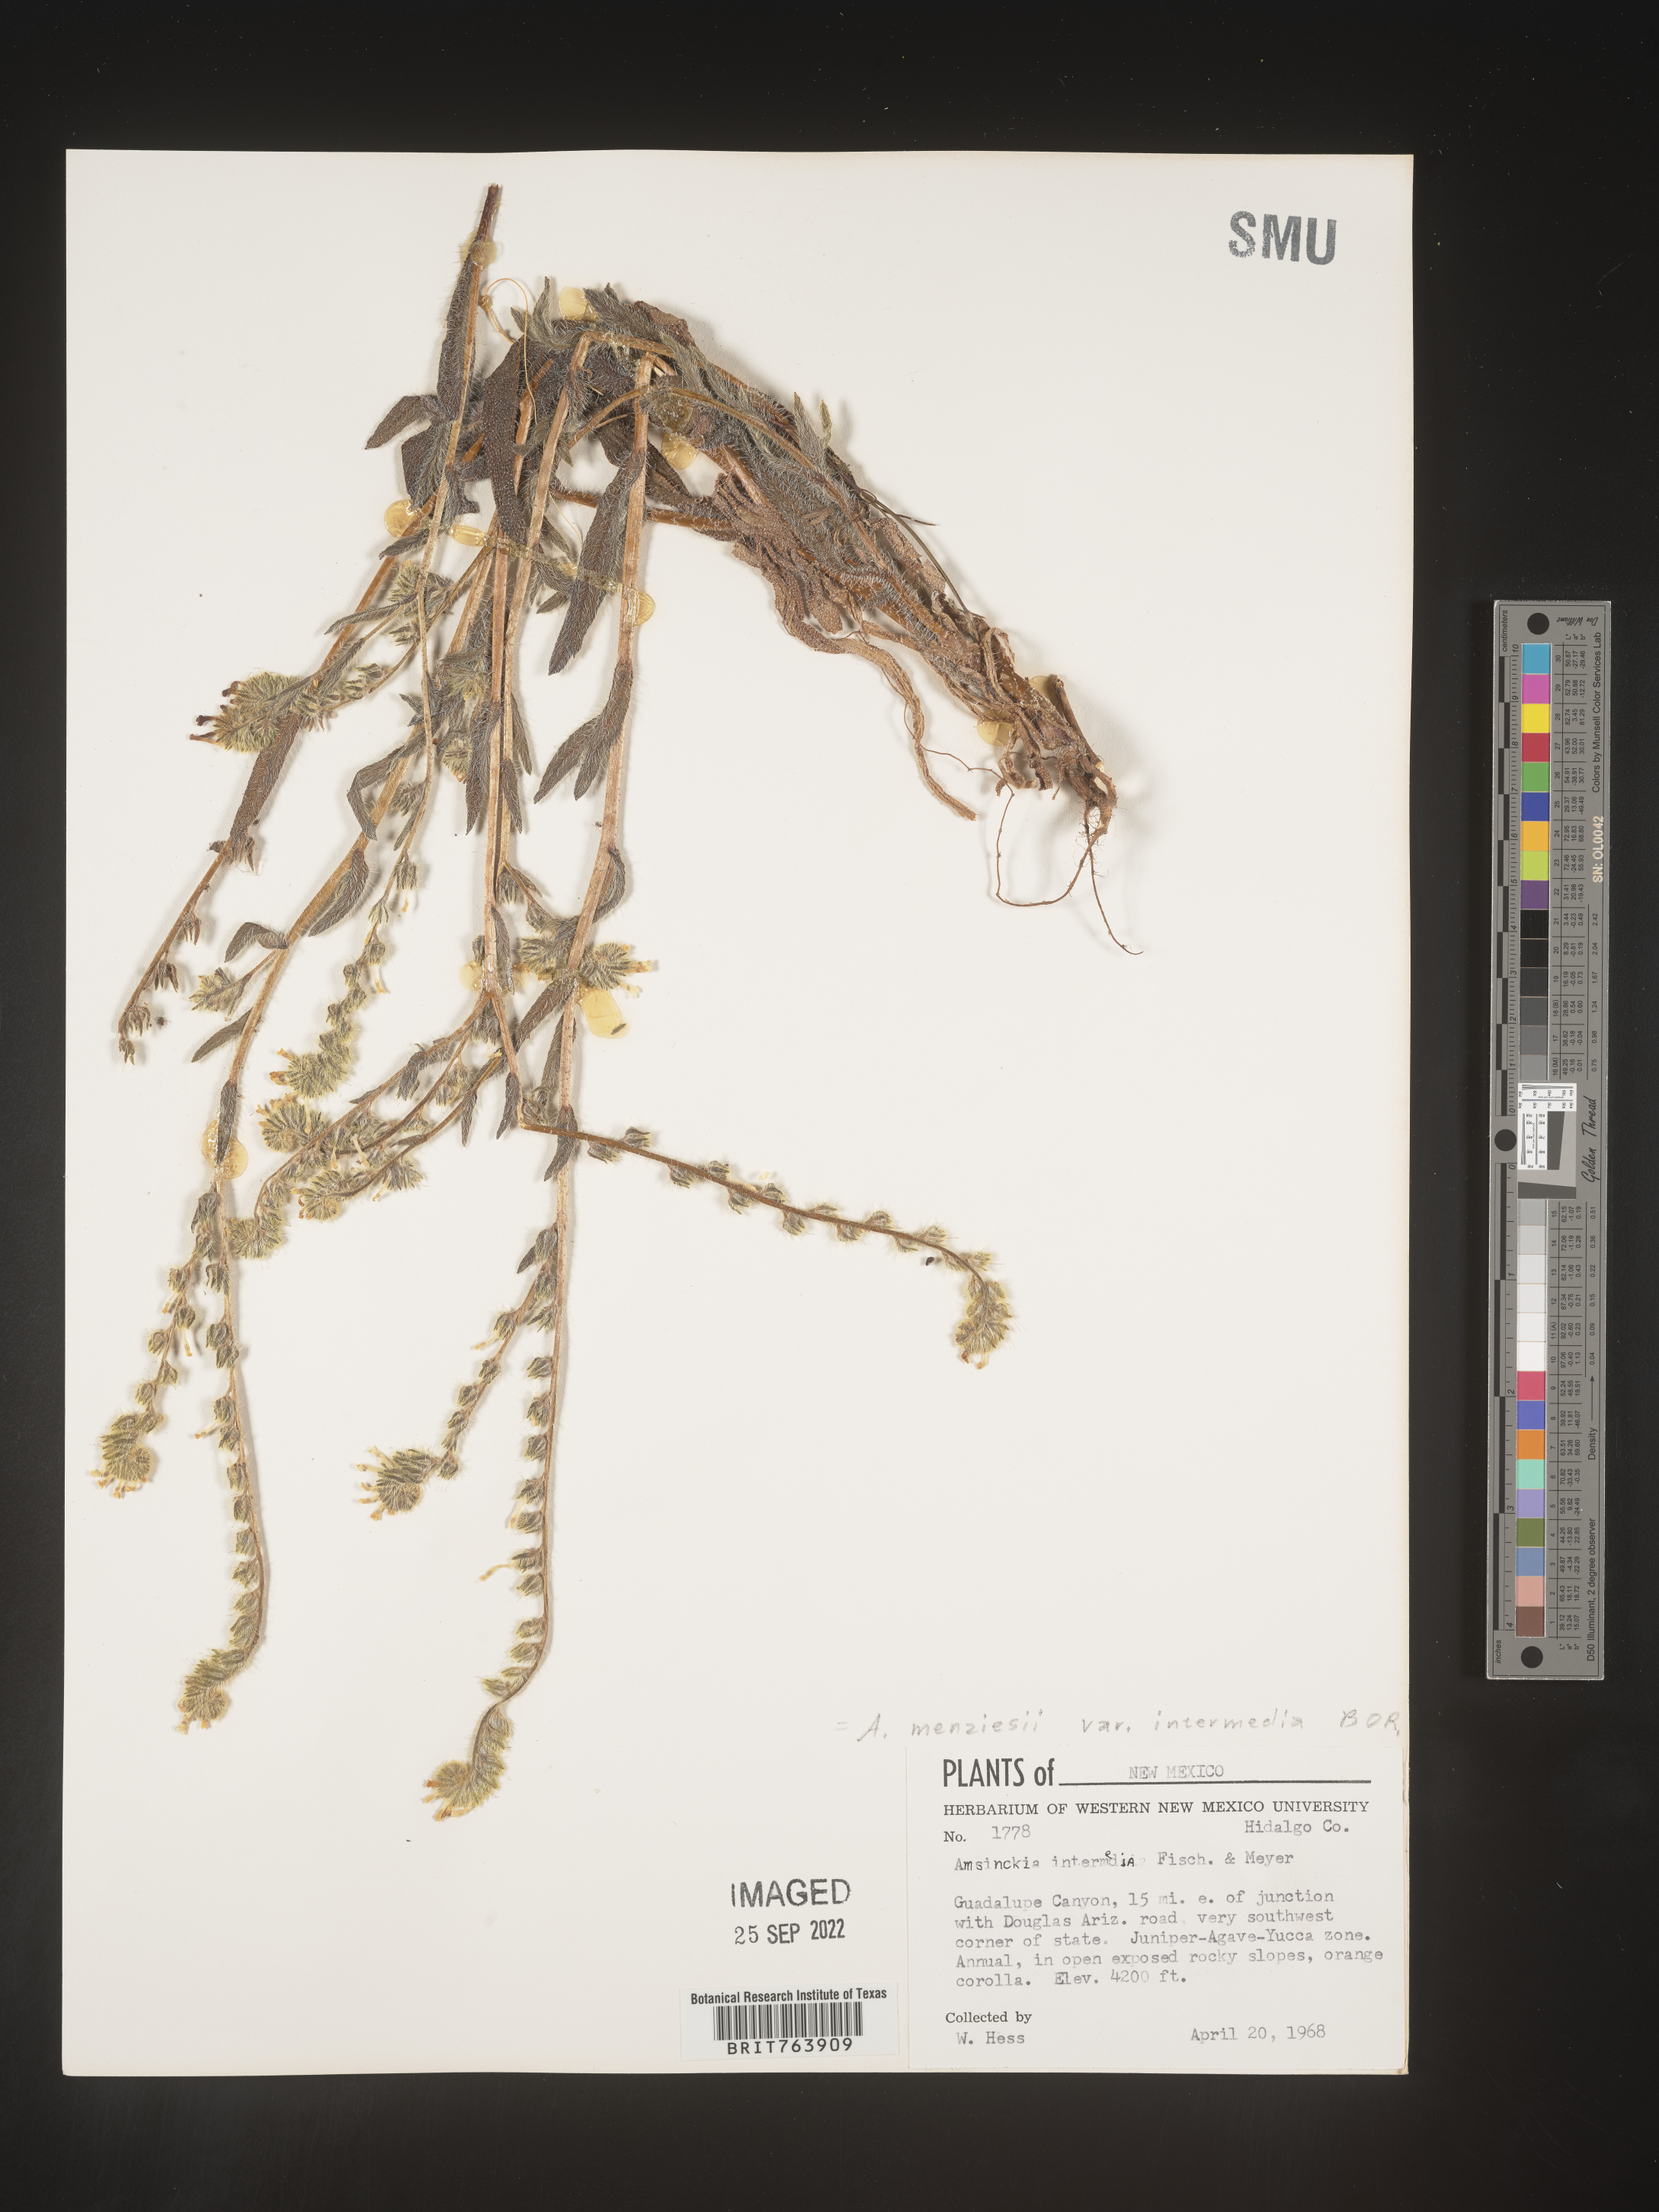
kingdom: Plantae
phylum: Tracheophyta
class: Magnoliopsida
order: Boraginales
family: Boraginaceae
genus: Amsinckia
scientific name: Amsinckia menziesii
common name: Menzies' fiddleneck
